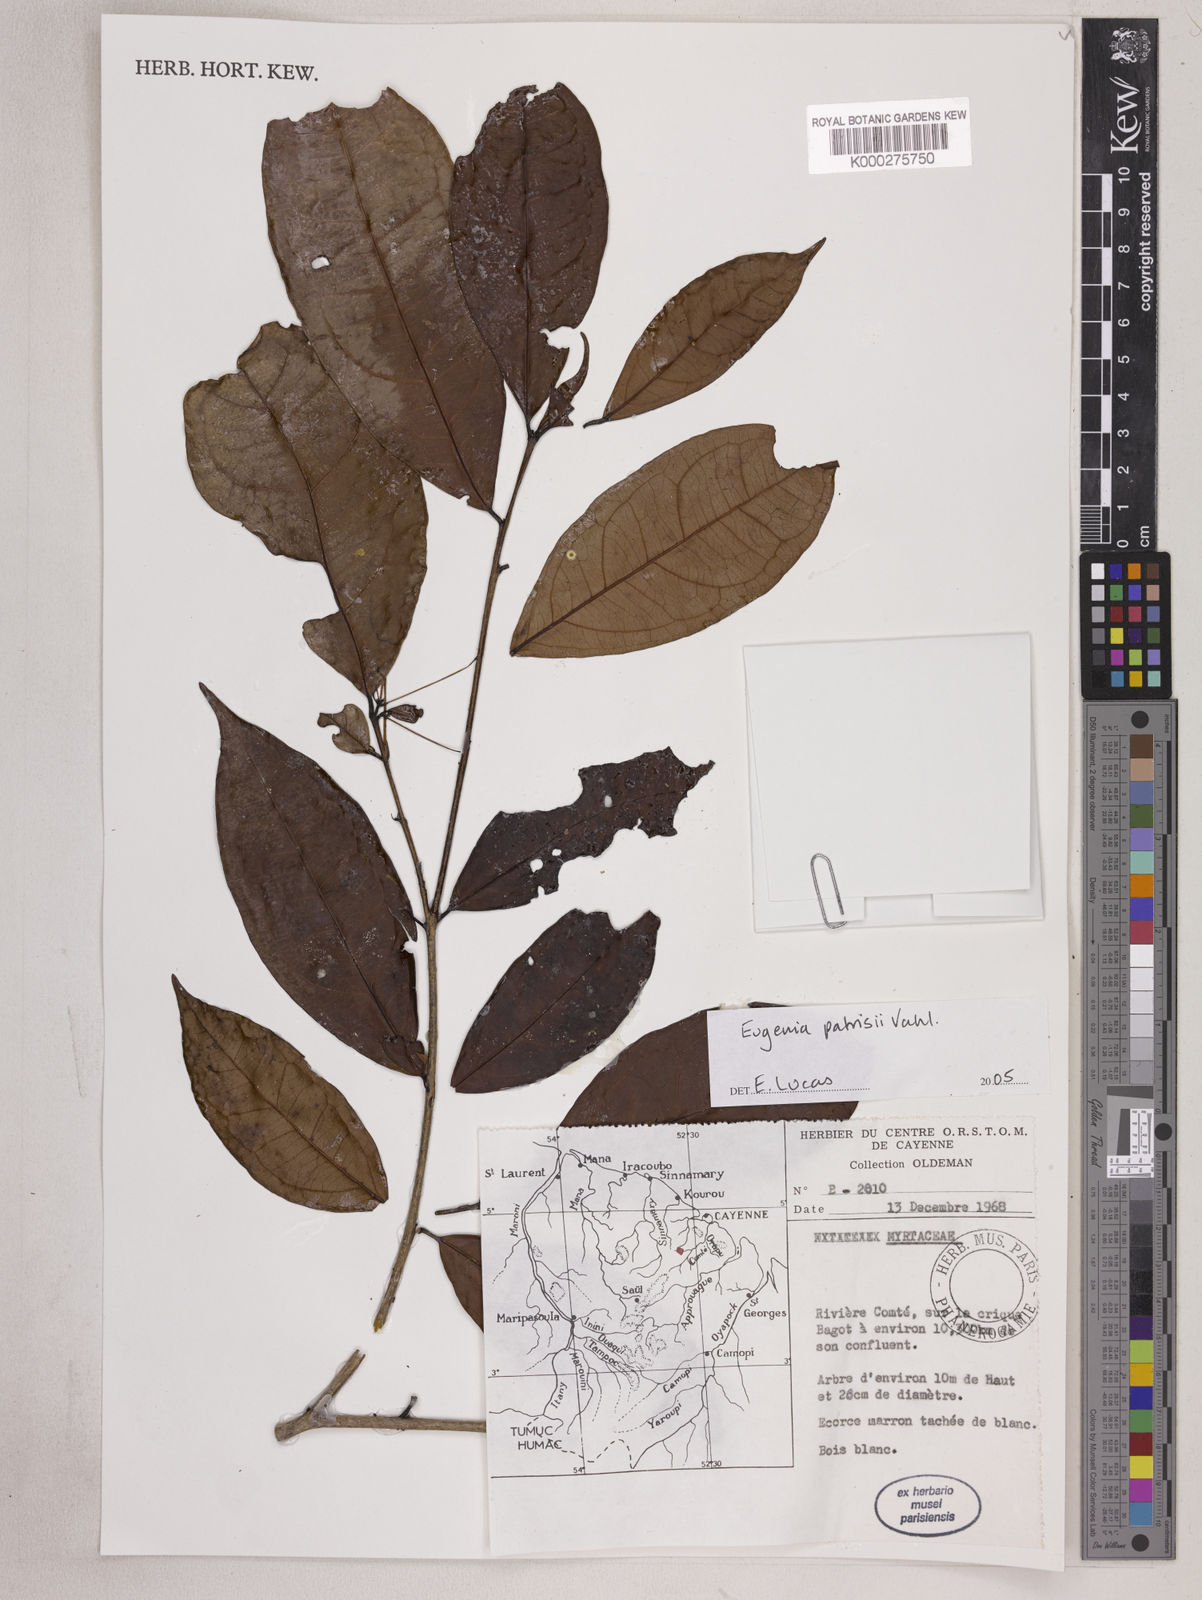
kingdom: Plantae
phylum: Tracheophyta
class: Magnoliopsida
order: Myrtales
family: Myrtaceae
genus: Eugenia
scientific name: Eugenia patrisii
